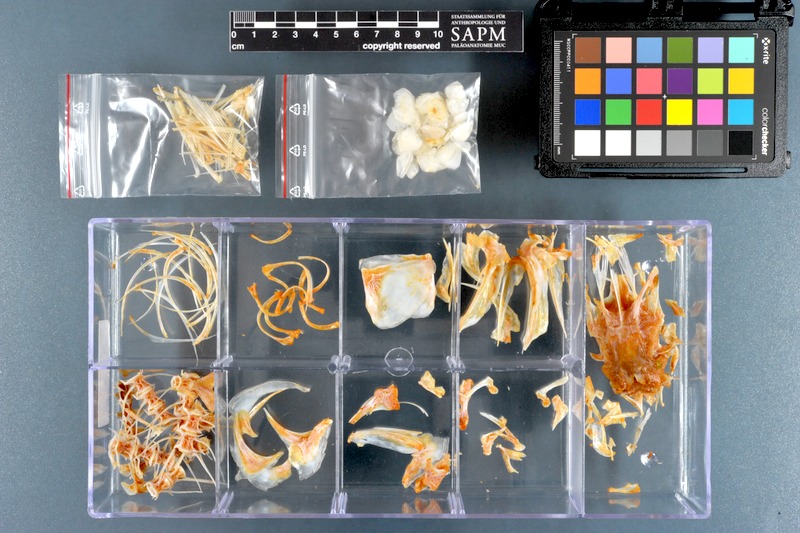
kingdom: Animalia
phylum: Chordata
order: Mugiliformes
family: Mugilidae
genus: Crenimugil
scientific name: Crenimugil seheli
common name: Bluespot mullet
